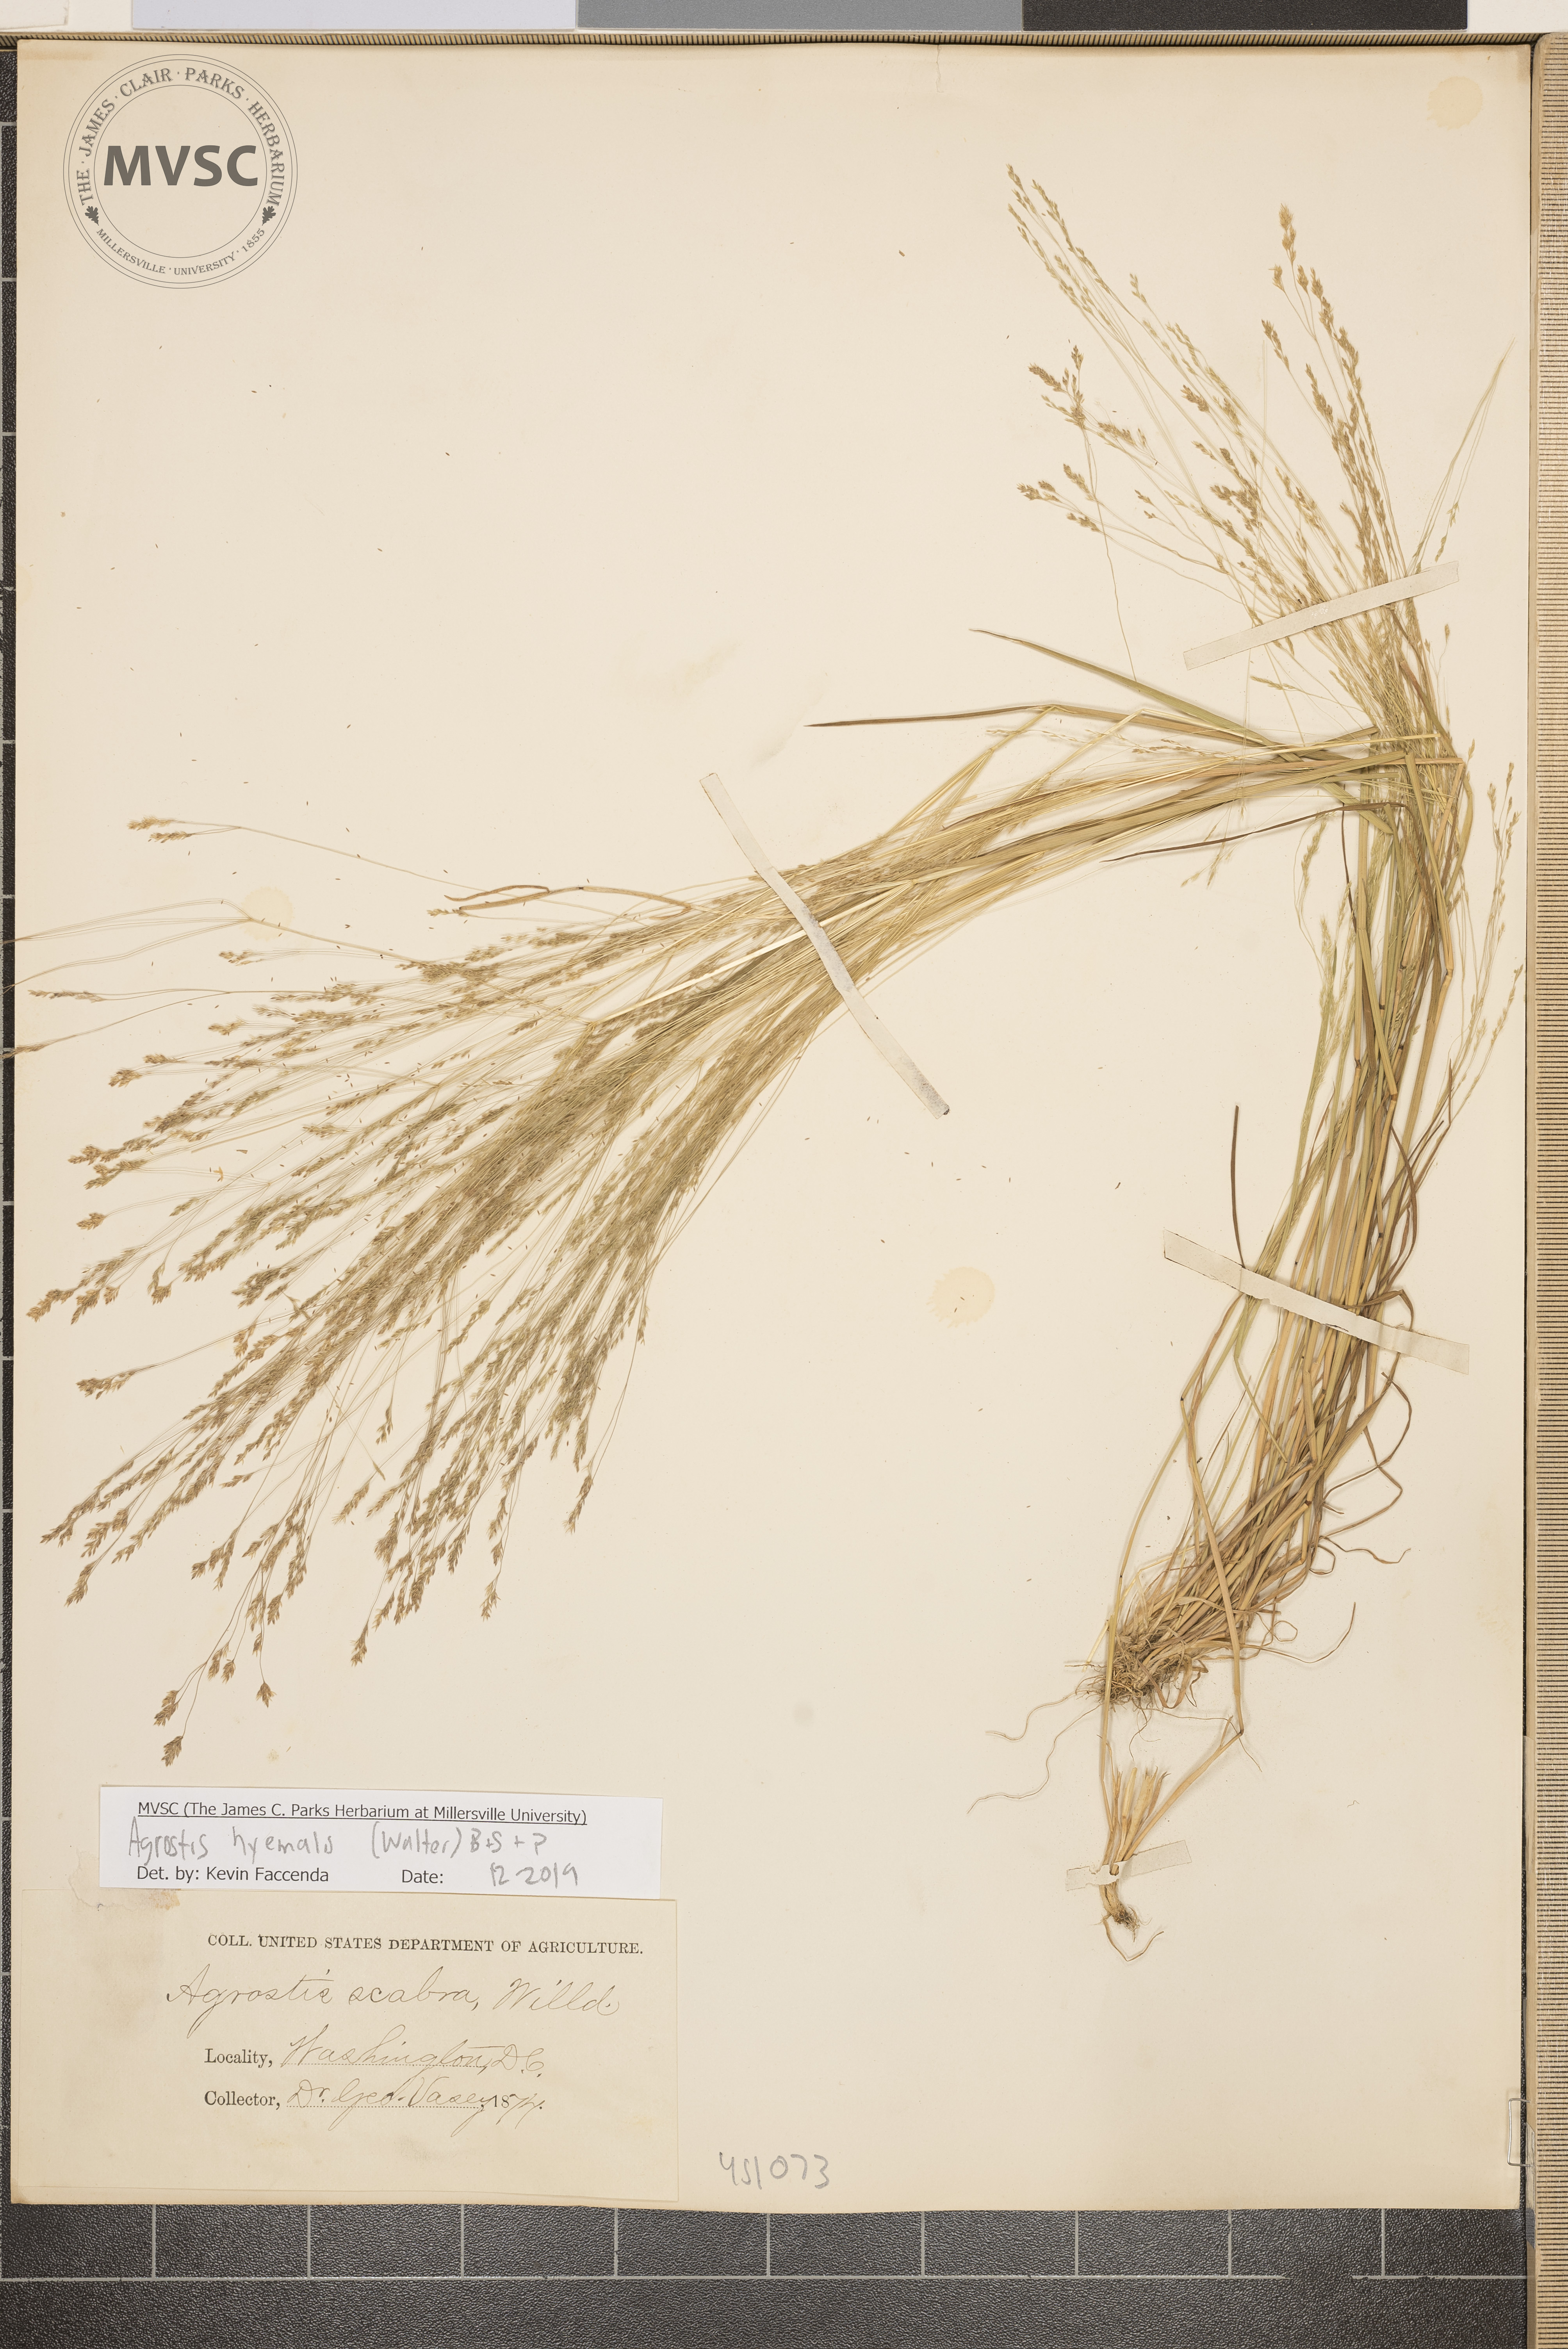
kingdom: Plantae
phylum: Tracheophyta
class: Liliopsida
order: Poales
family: Poaceae
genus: Agrostis
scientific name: Agrostis hyemalis
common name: Small bent
